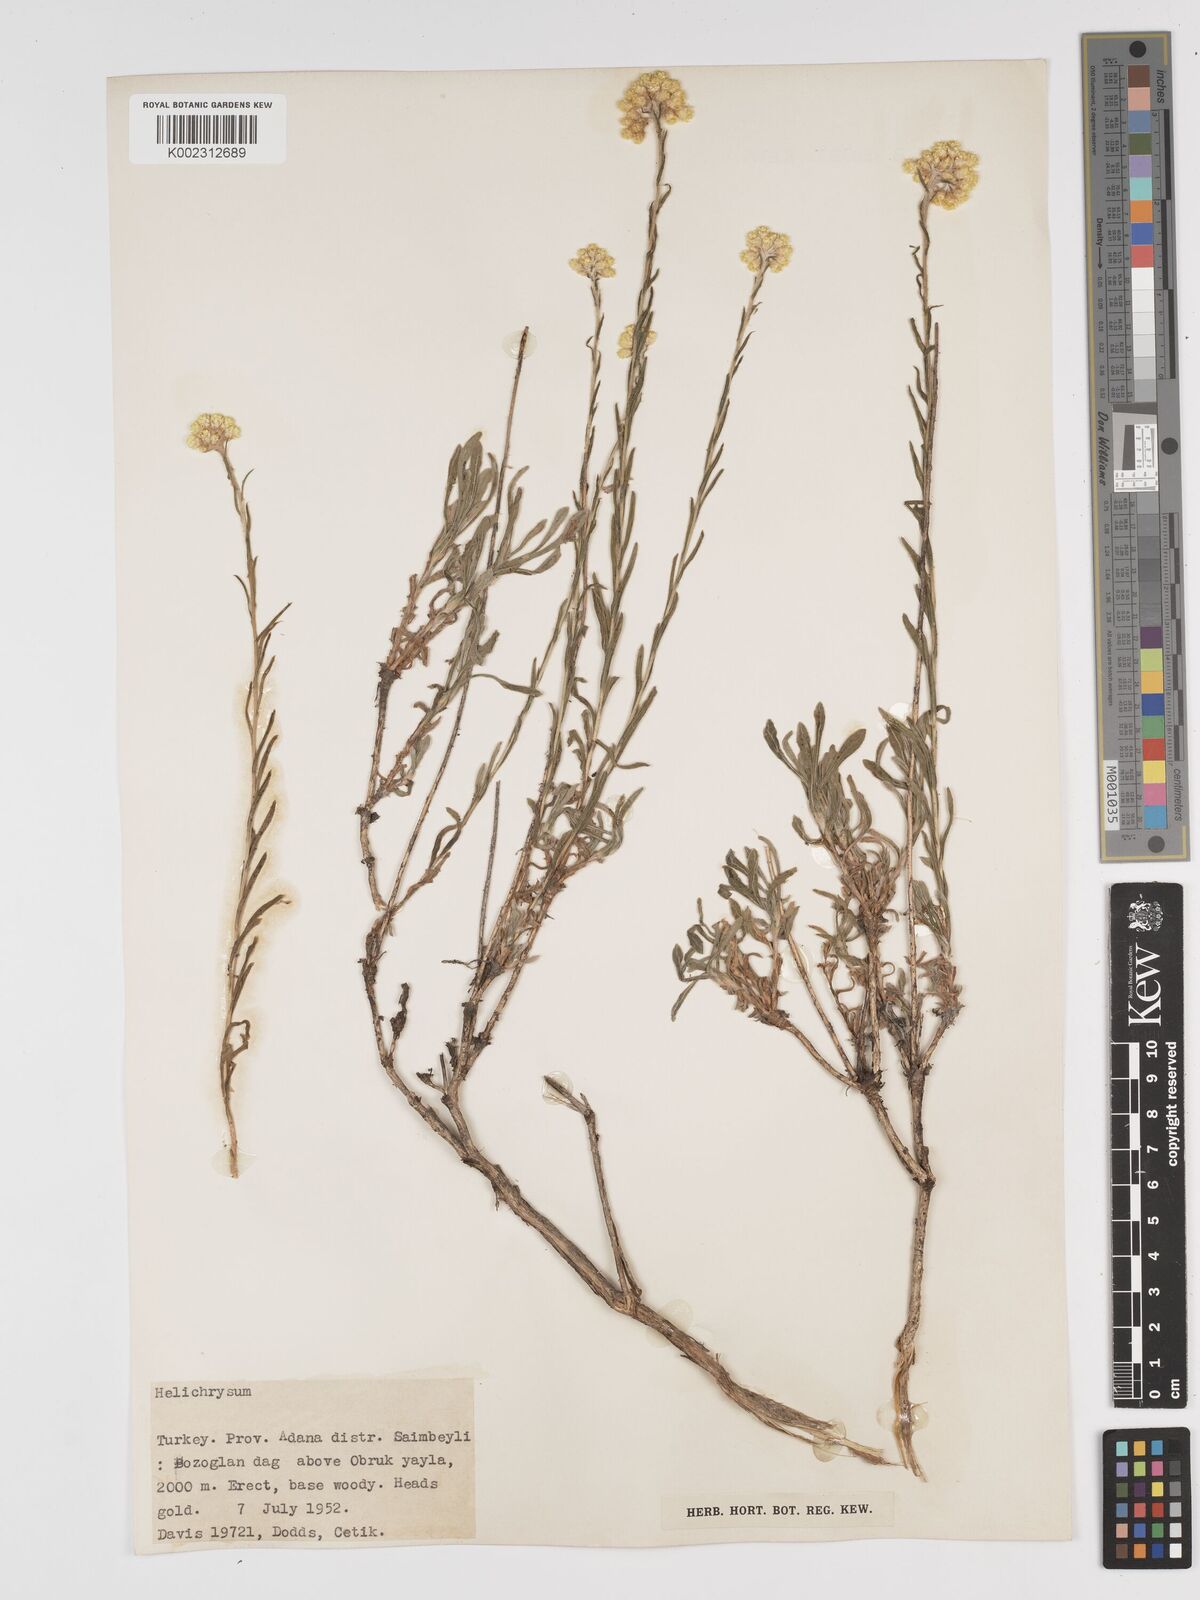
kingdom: Plantae
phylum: Tracheophyta
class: Magnoliopsida
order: Asterales
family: Asteraceae
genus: Helichrysum
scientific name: Helichrysum armenium
